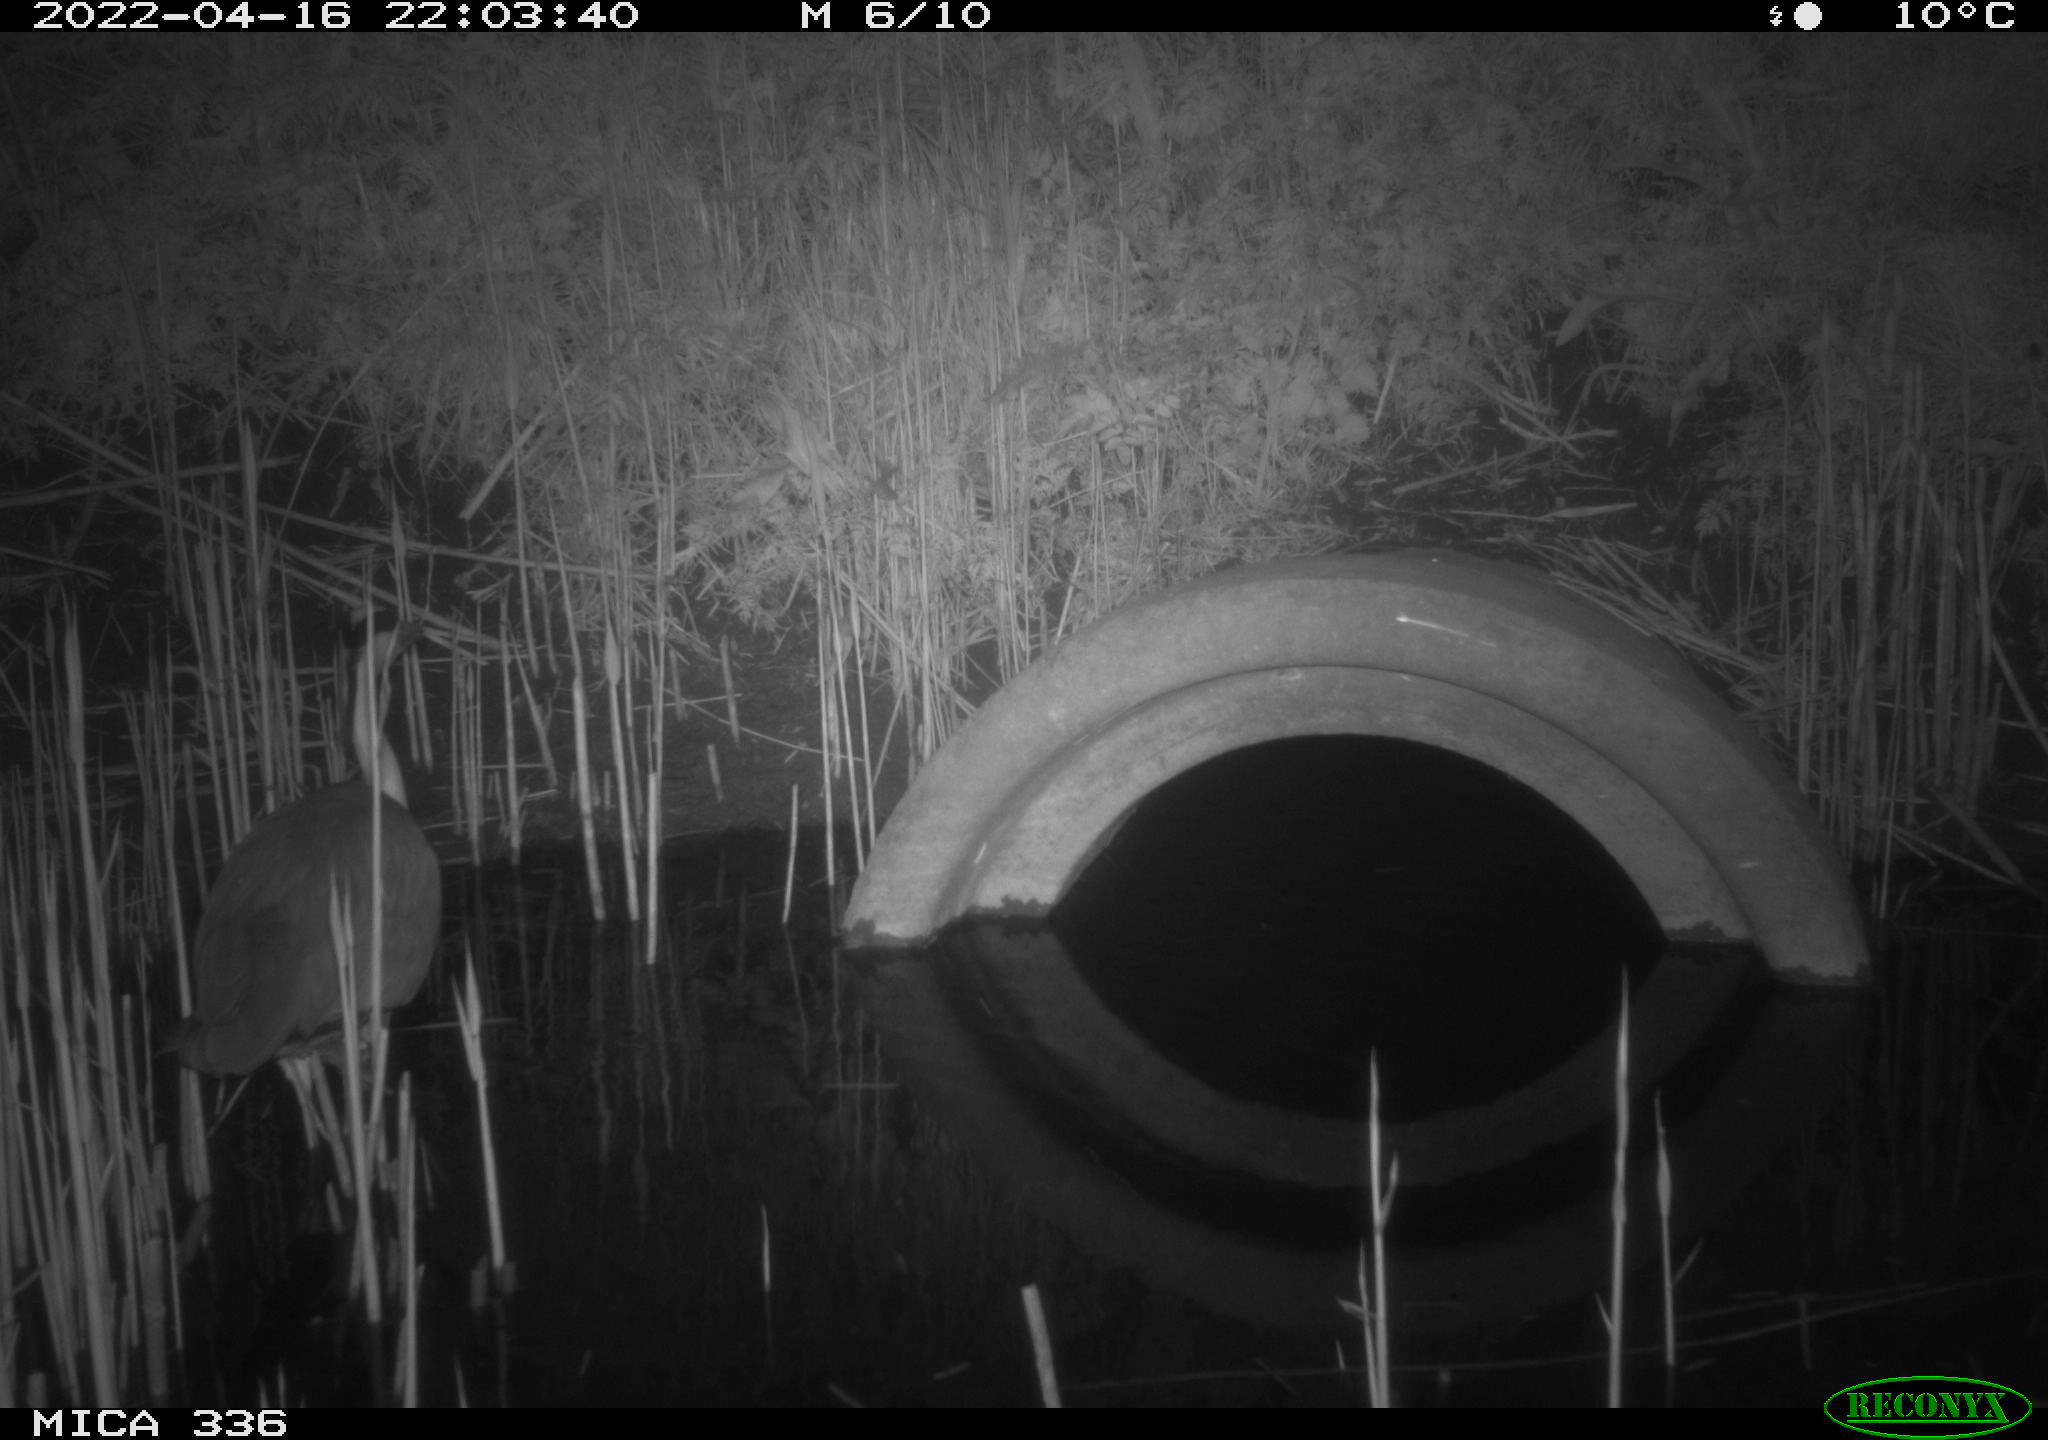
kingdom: Animalia
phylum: Chordata
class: Aves
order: Pelecaniformes
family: Ardeidae
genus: Ardea
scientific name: Ardea cinerea
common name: Grey heron
